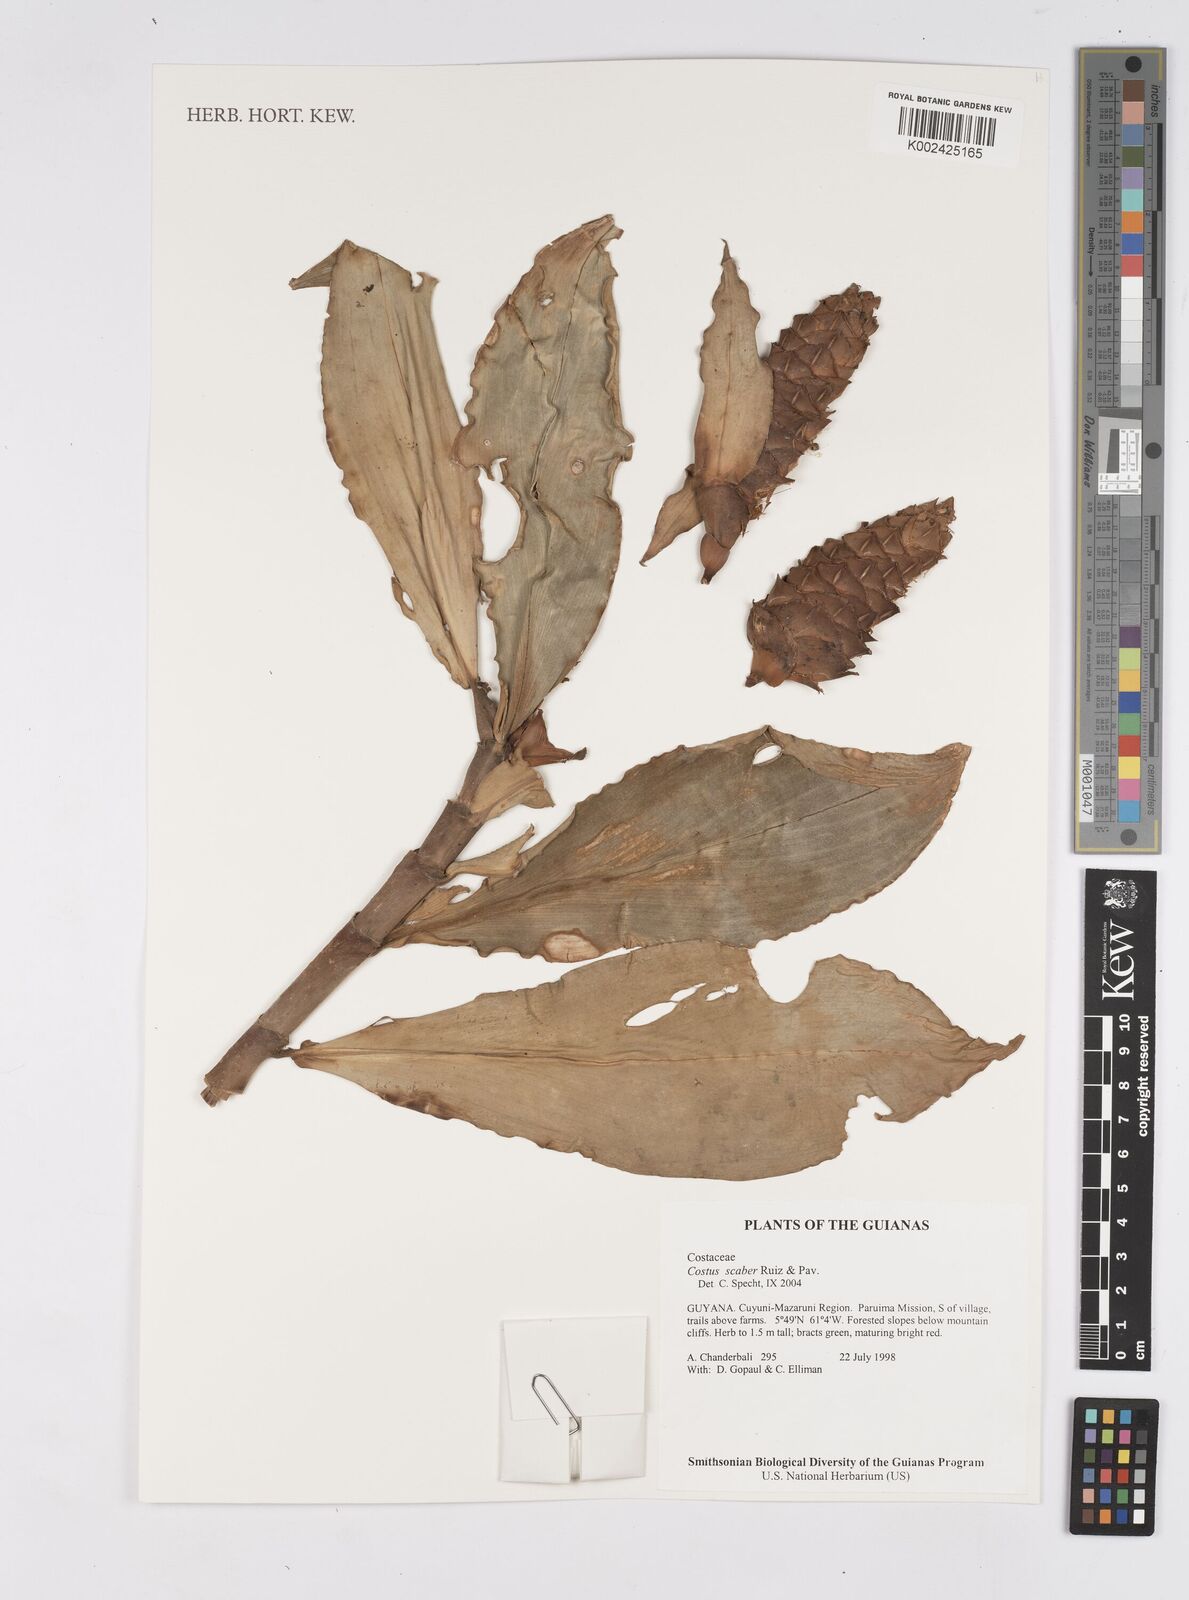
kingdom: Plantae
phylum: Tracheophyta
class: Liliopsida
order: Zingiberales
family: Costaceae
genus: Costus
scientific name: Costus scaber
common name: Spiral head ginger
